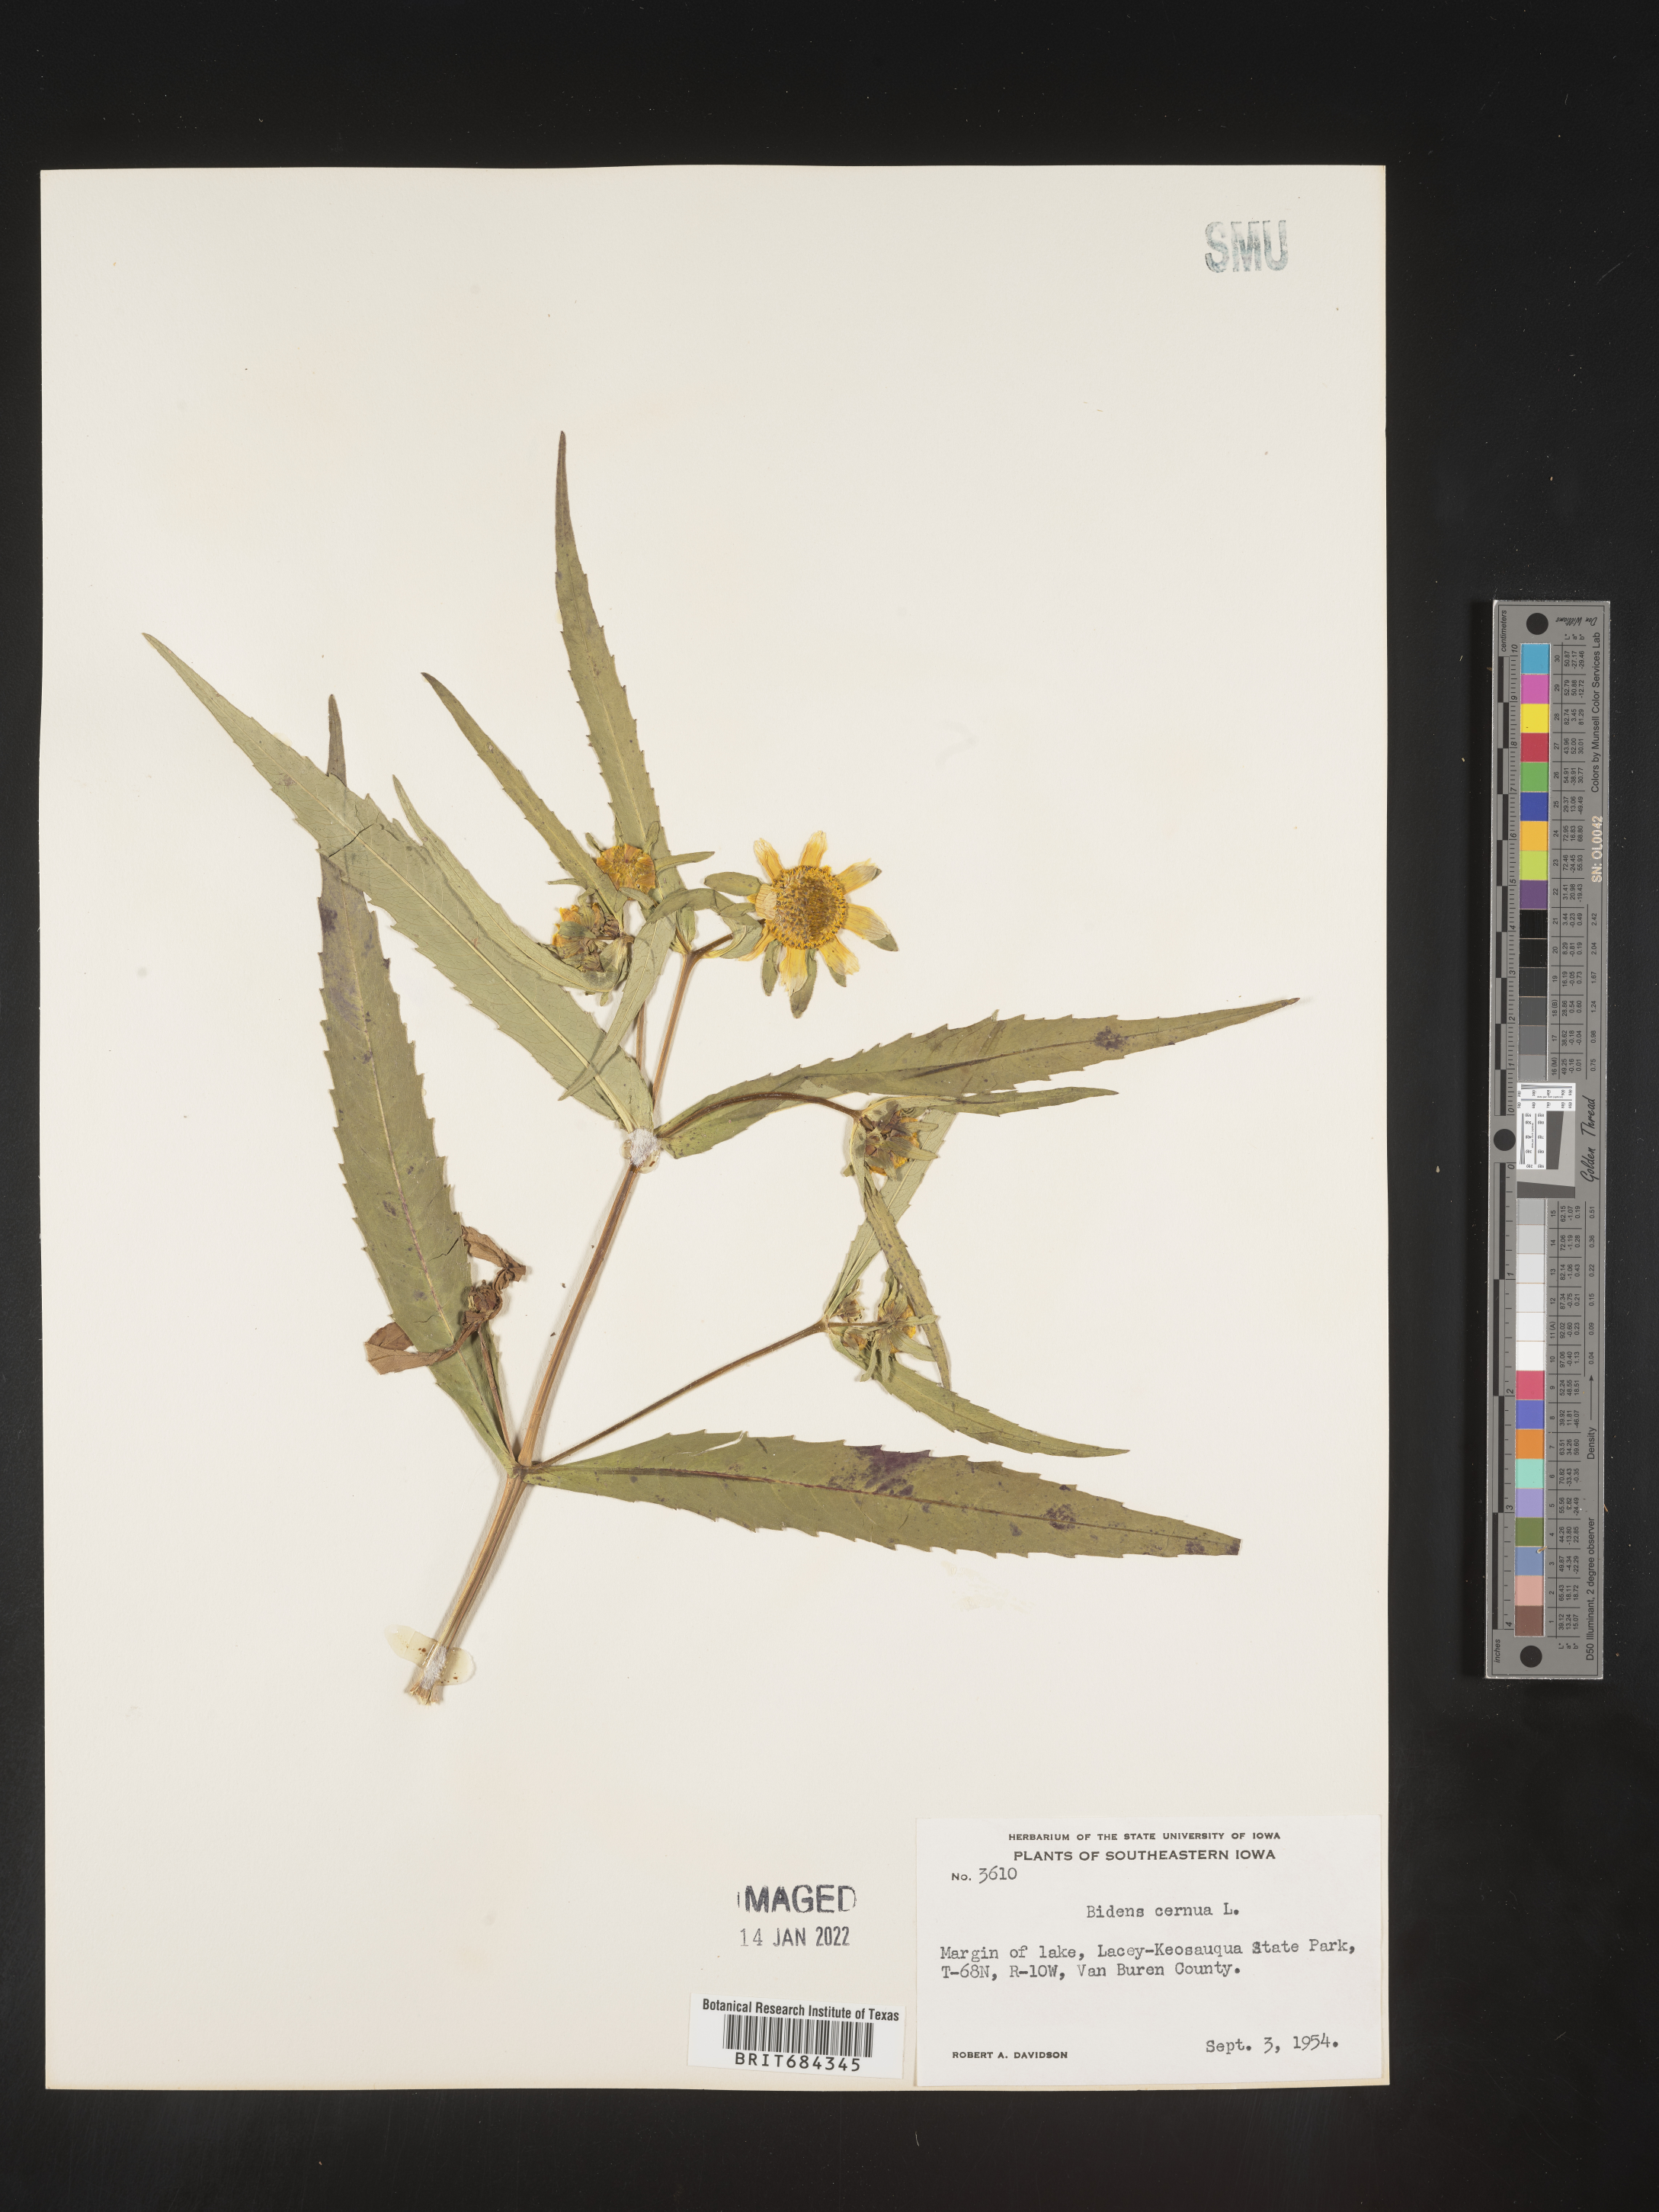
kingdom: Plantae
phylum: Tracheophyta
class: Magnoliopsida
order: Asterales
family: Asteraceae
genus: Bidens
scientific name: Bidens cernua
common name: Nodding bur-marigold
